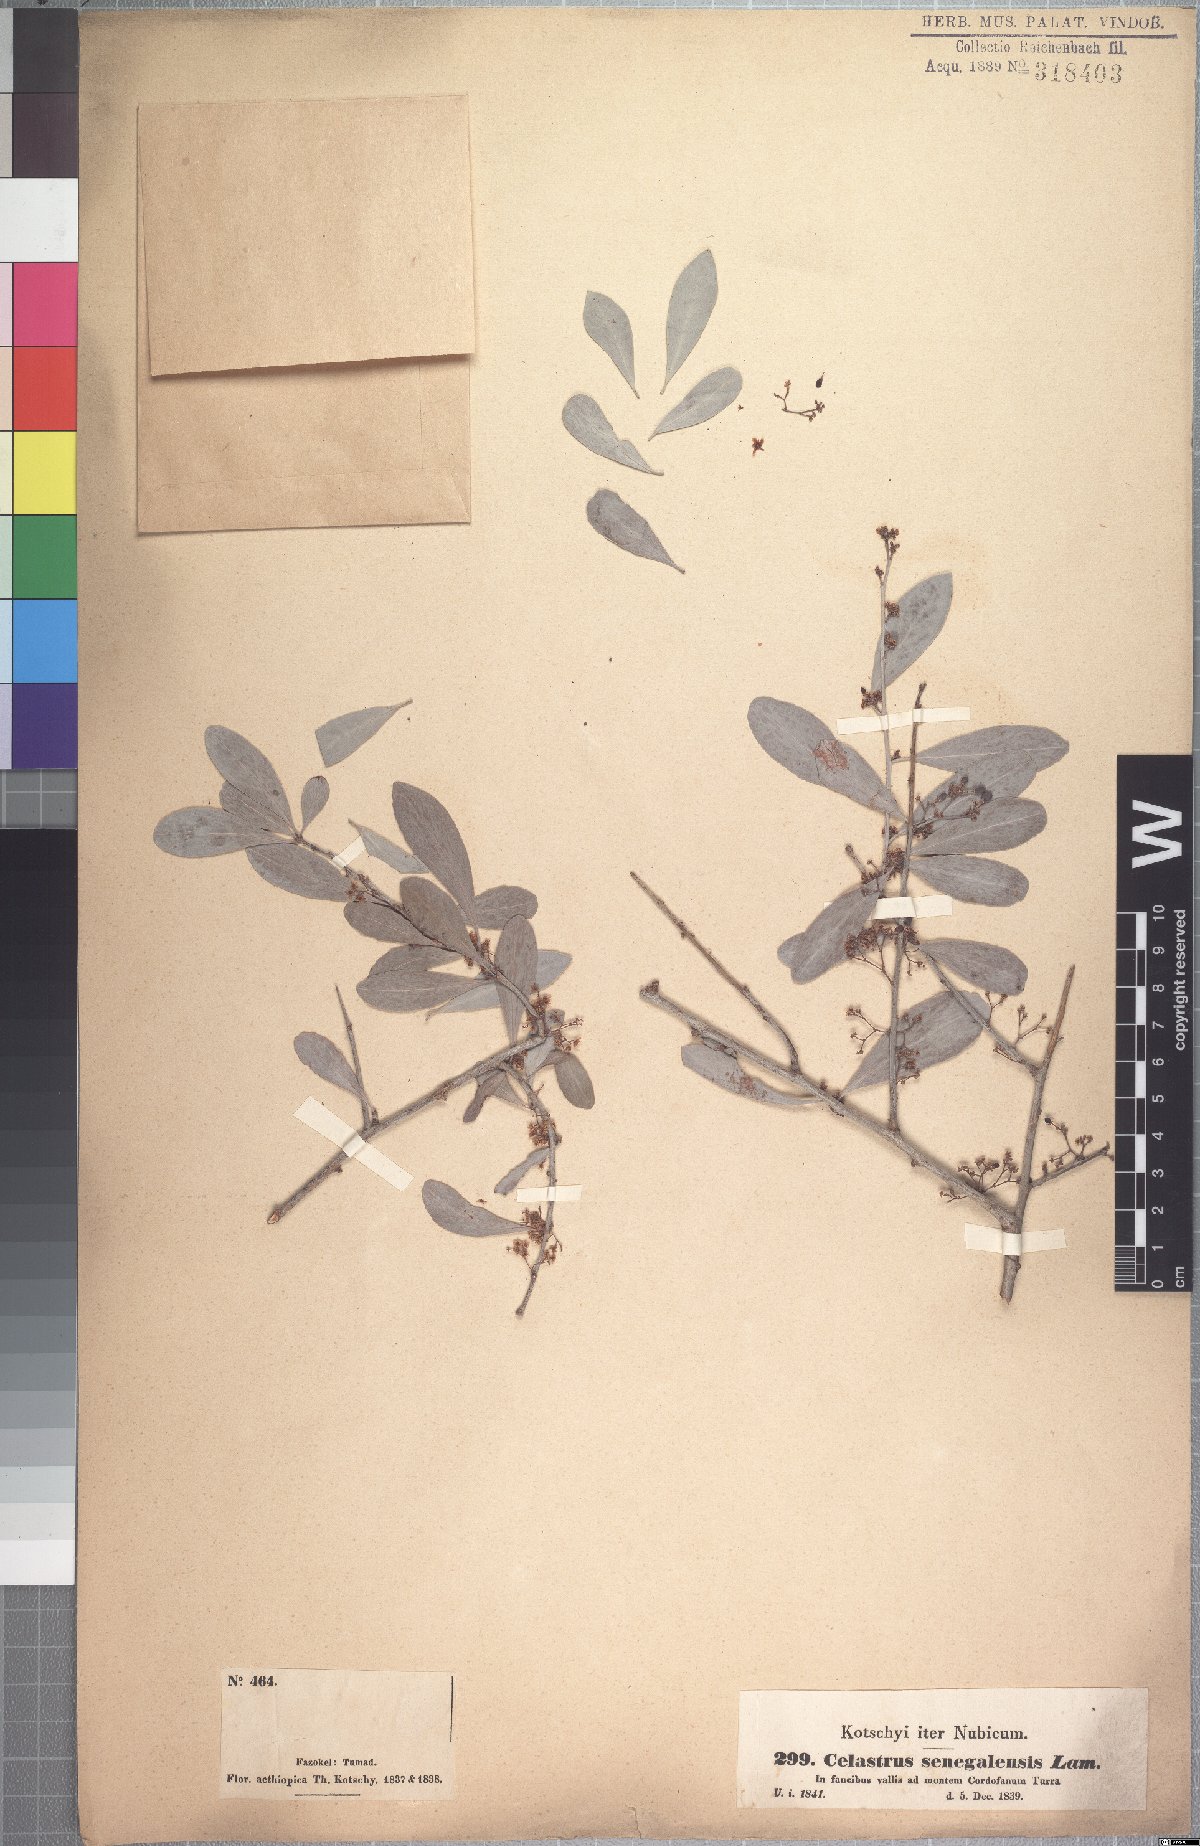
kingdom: Plantae
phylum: Tracheophyta
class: Magnoliopsida
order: Celastrales
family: Celastraceae
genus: Gymnosporia
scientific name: Gymnosporia senegalensis
